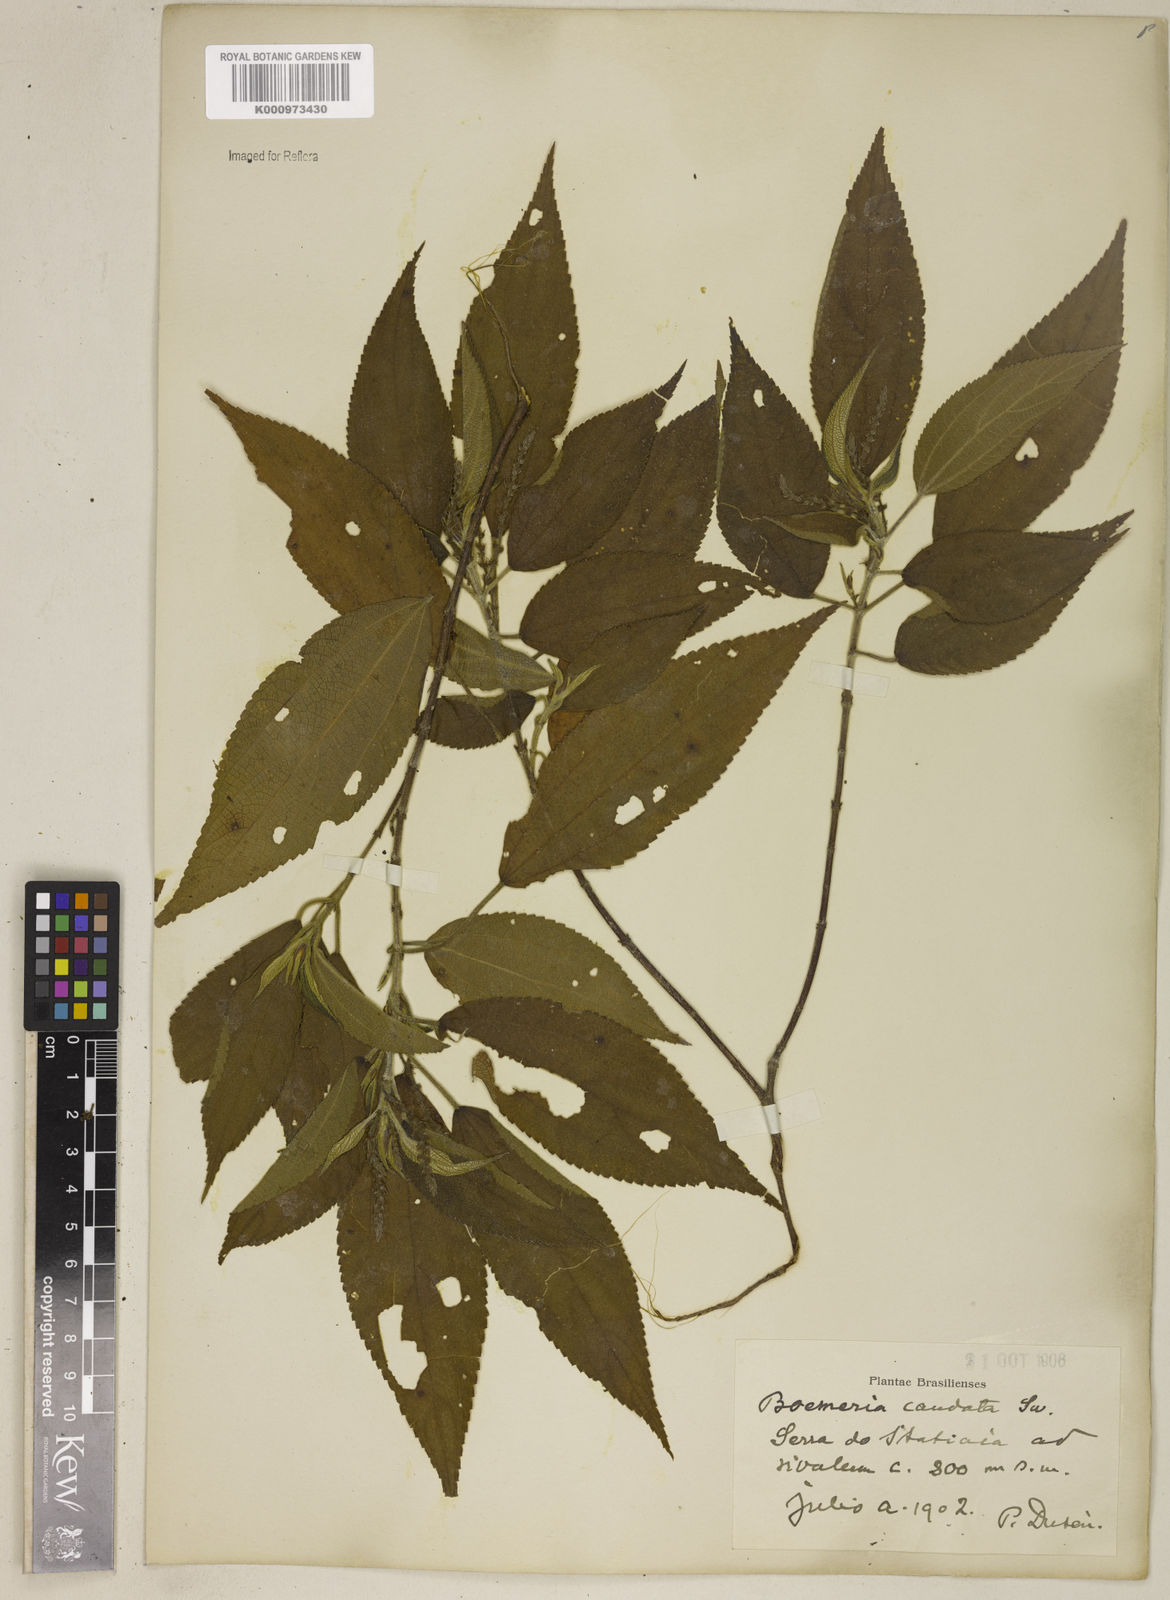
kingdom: Plantae
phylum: Tracheophyta
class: Magnoliopsida
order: Rosales
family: Urticaceae
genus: Boehmeria
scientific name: Boehmeria caudata
